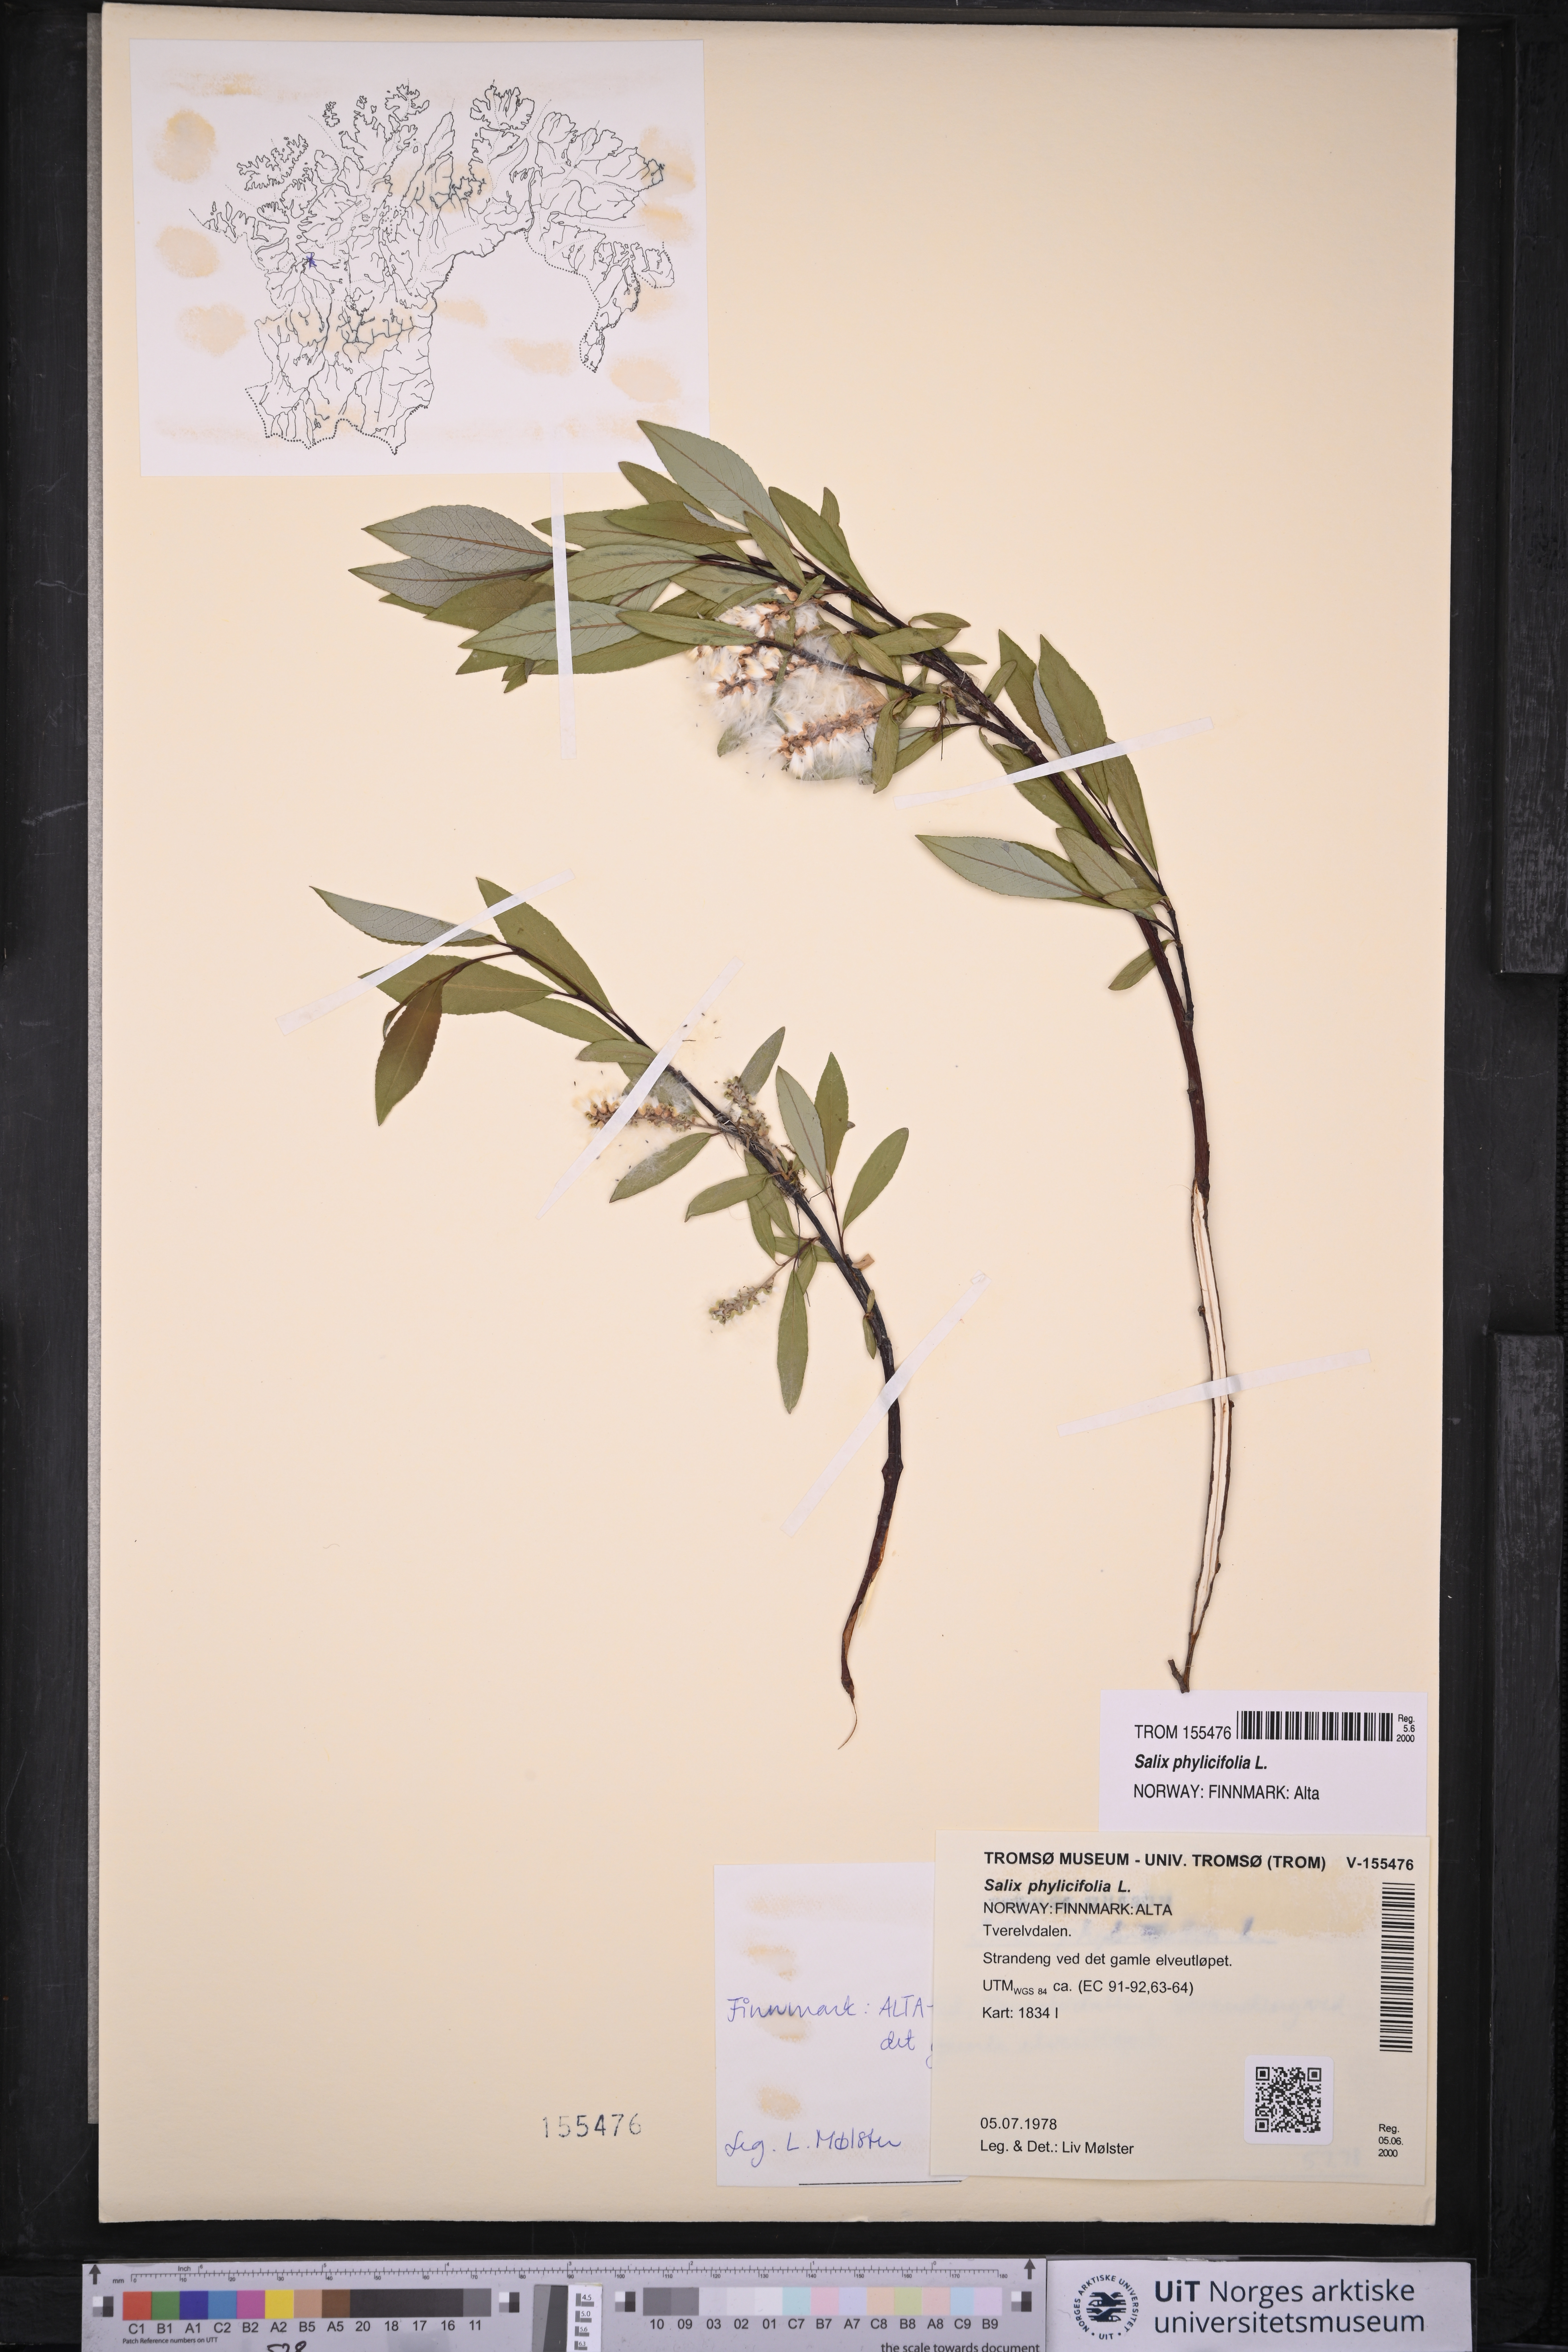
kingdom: Plantae
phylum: Tracheophyta
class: Magnoliopsida
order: Malpighiales
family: Salicaceae
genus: Salix
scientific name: Salix phylicifolia
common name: Tea-leaved willow
